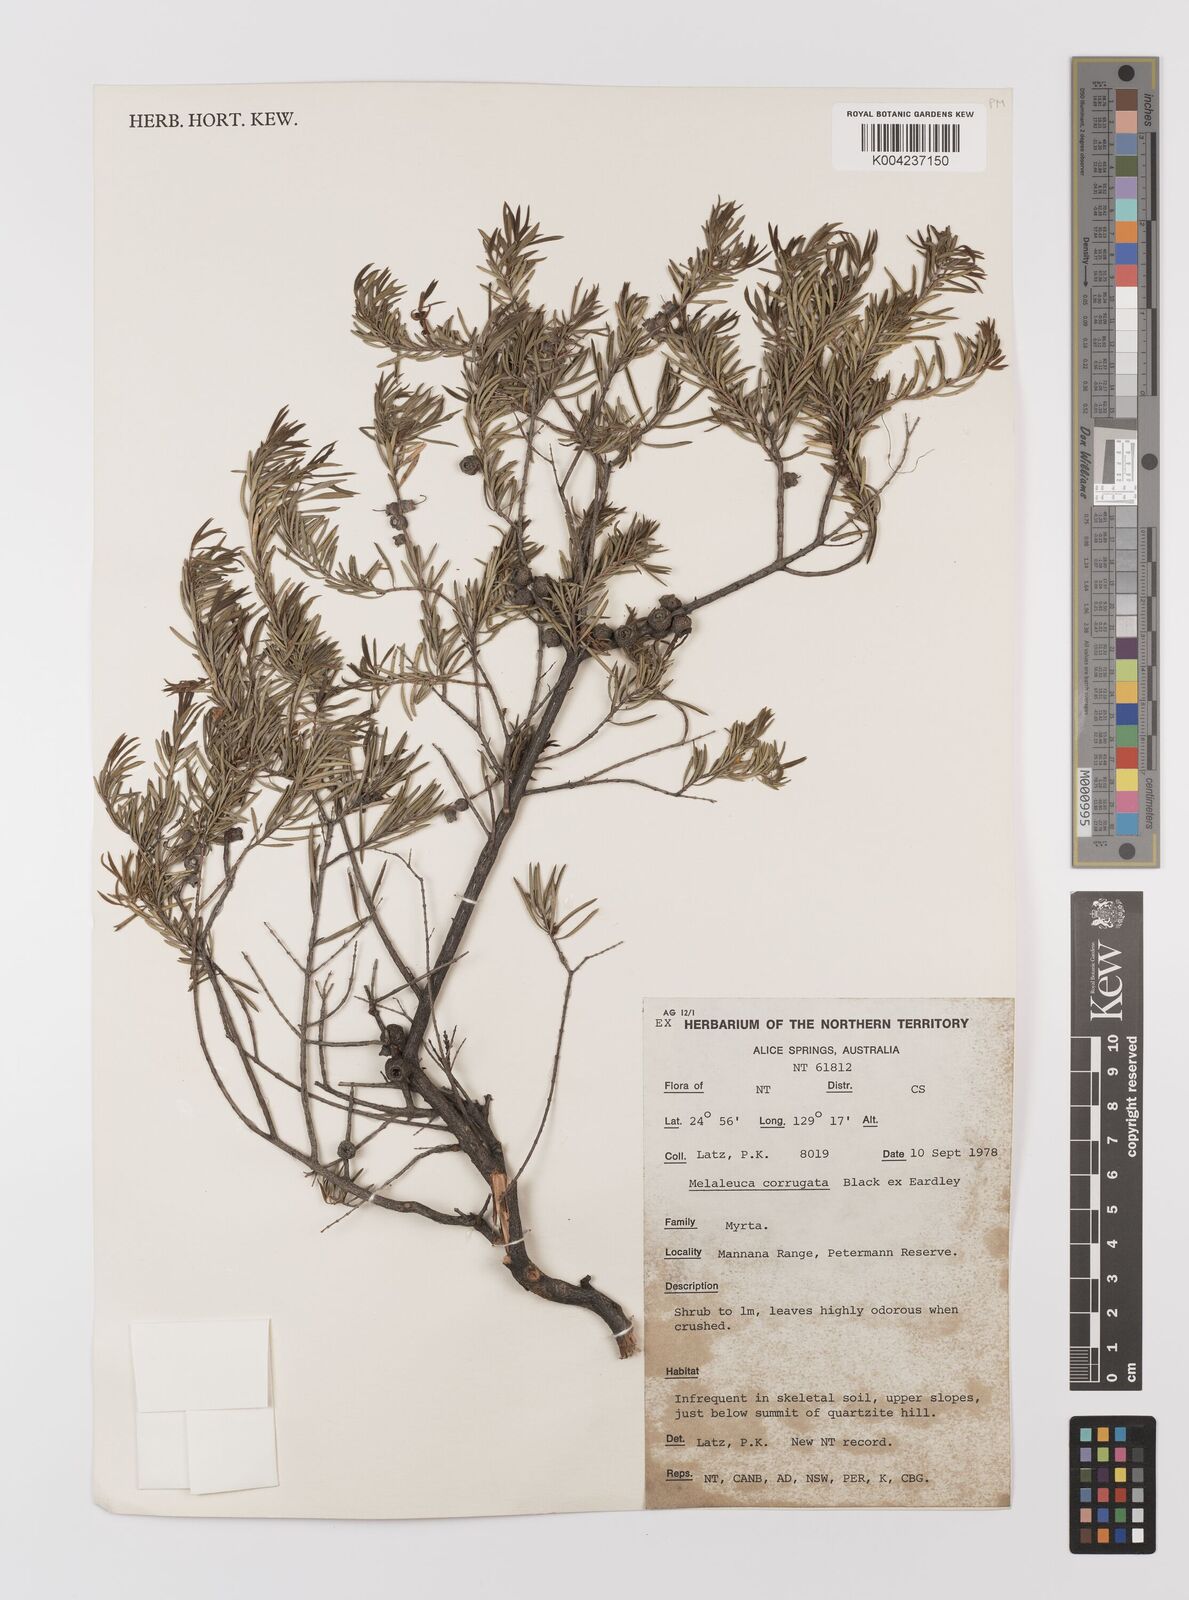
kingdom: Plantae
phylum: Tracheophyta
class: Magnoliopsida
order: Myrtales
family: Myrtaceae
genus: Melaleuca
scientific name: Melaleuca fulgens
